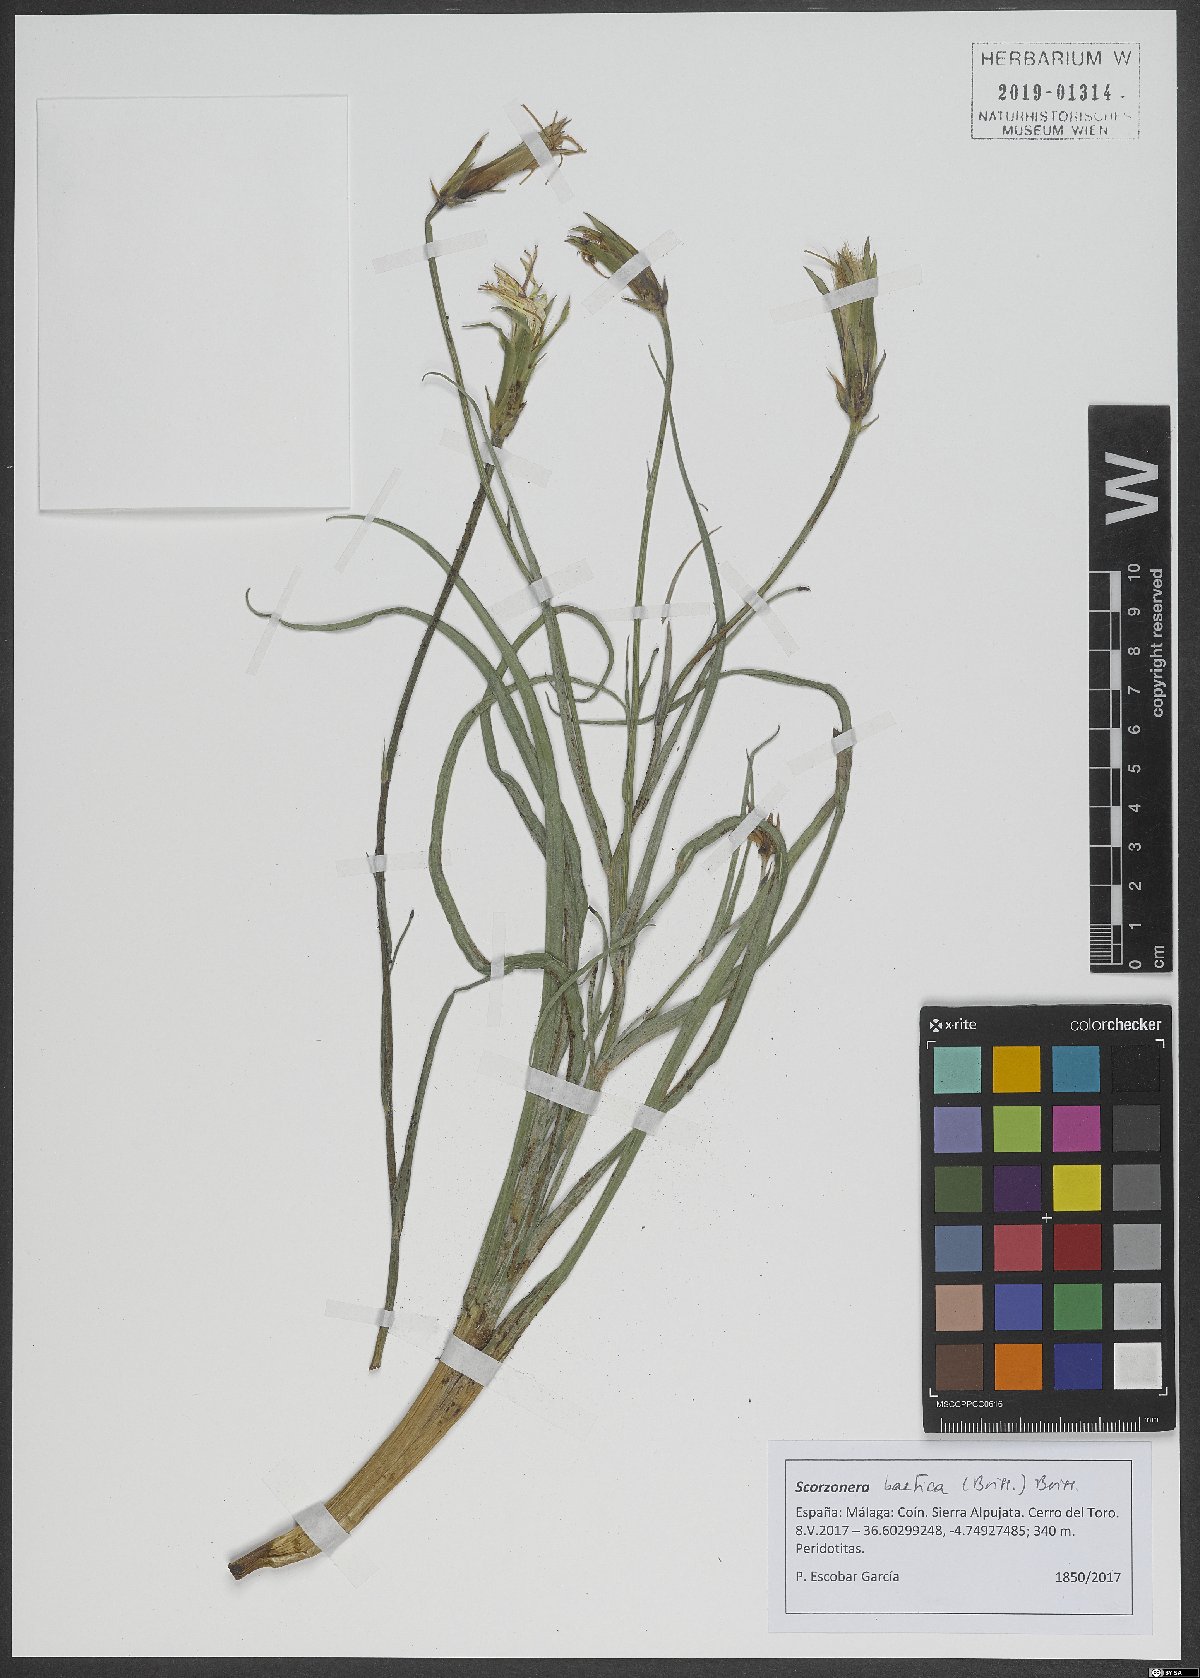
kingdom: Plantae
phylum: Tracheophyta
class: Magnoliopsida
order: Asterales
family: Asteraceae
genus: Scorzonera
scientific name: Scorzonera baetica
